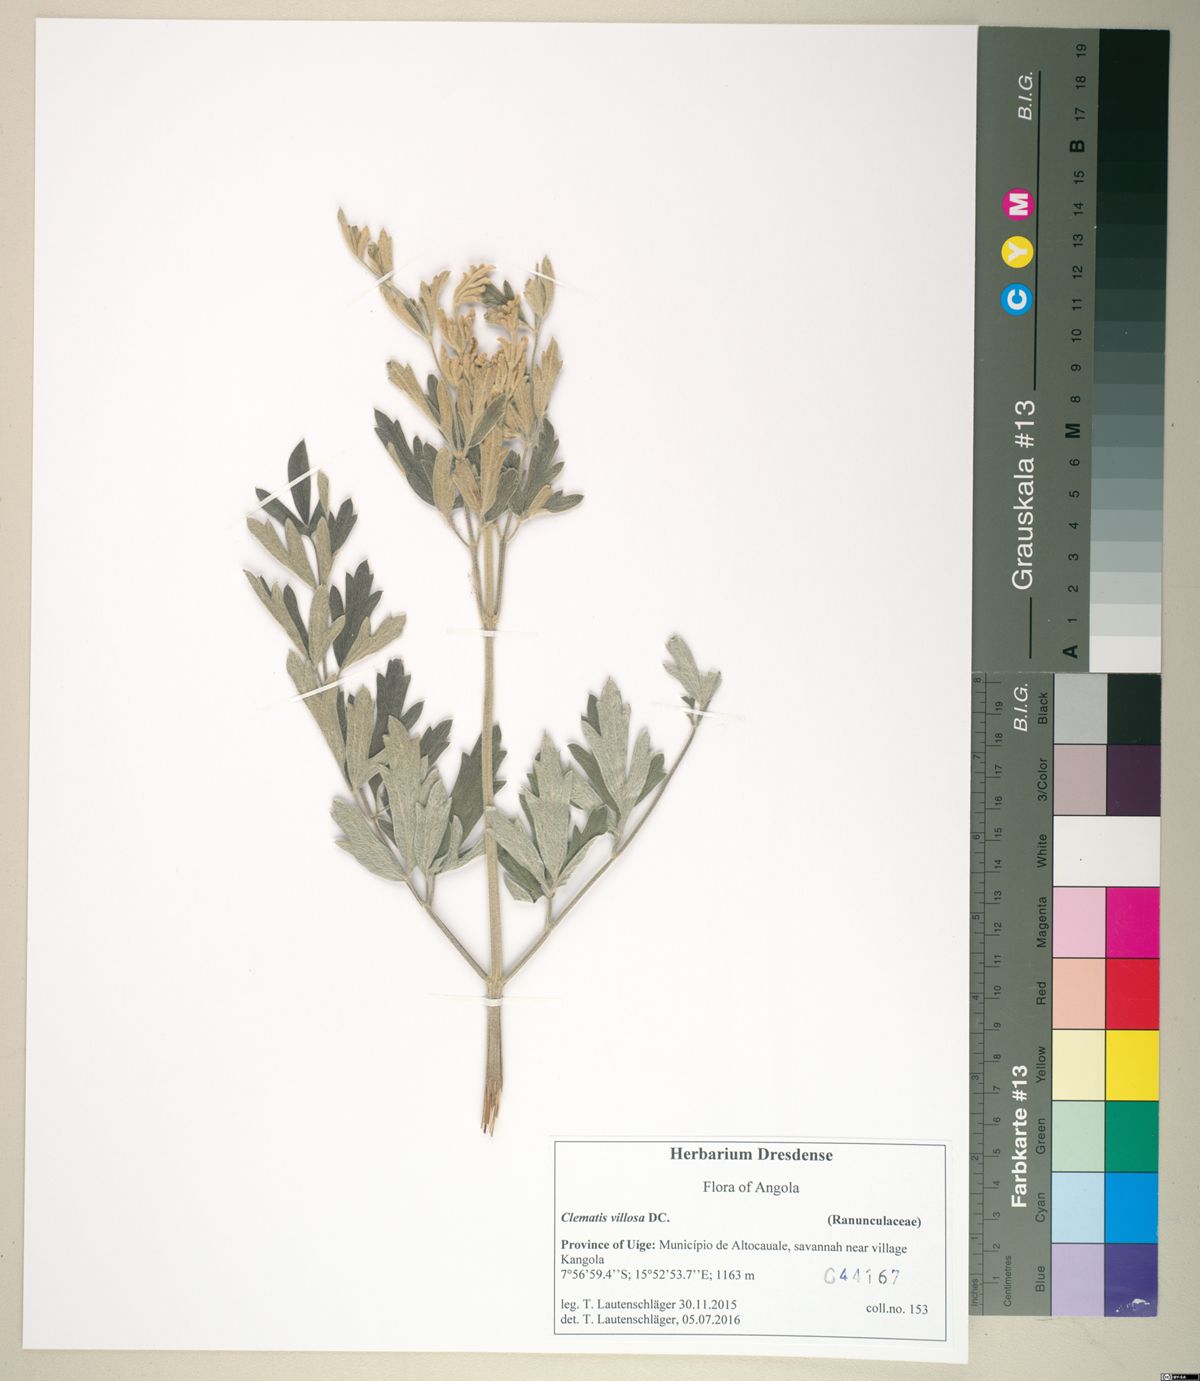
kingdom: Plantae
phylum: Tracheophyta
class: Magnoliopsida
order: Ranunculales
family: Ranunculaceae
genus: Clematis
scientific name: Clematis villosa
